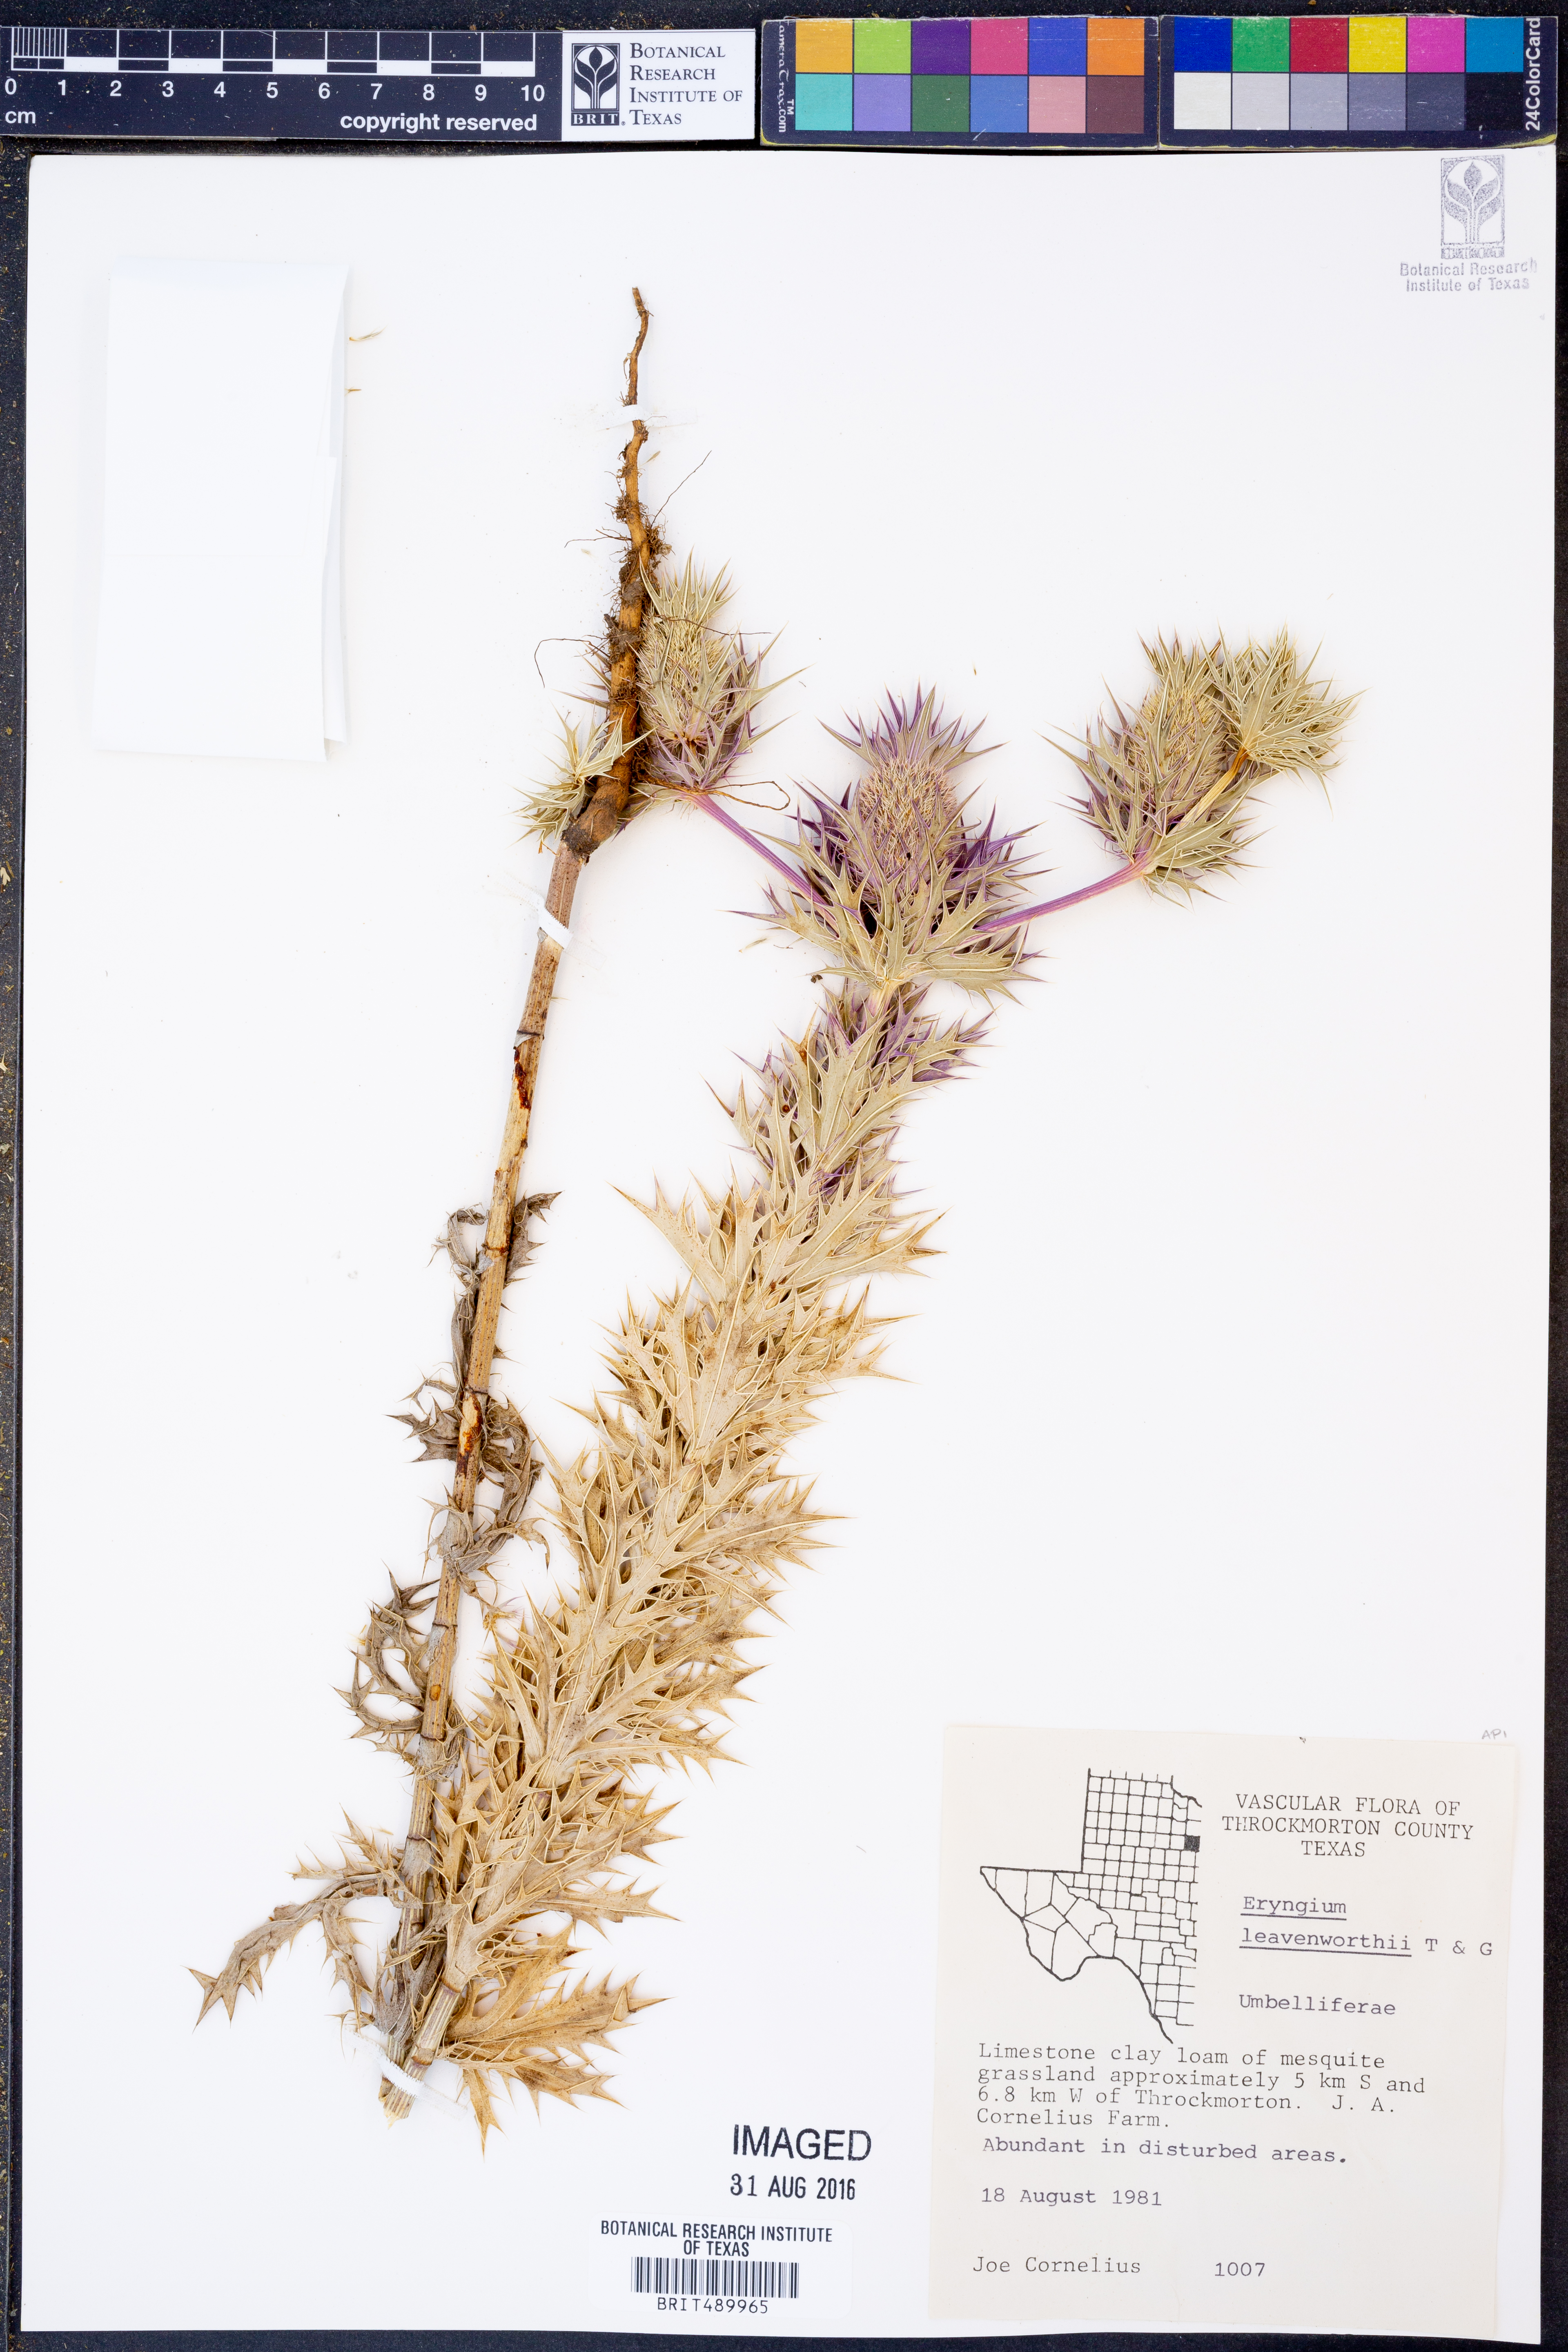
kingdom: Plantae
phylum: Tracheophyta
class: Magnoliopsida
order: Apiales
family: Apiaceae
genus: Eryngium
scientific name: Eryngium leavenworthii
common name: Leavenworth's eryngo
